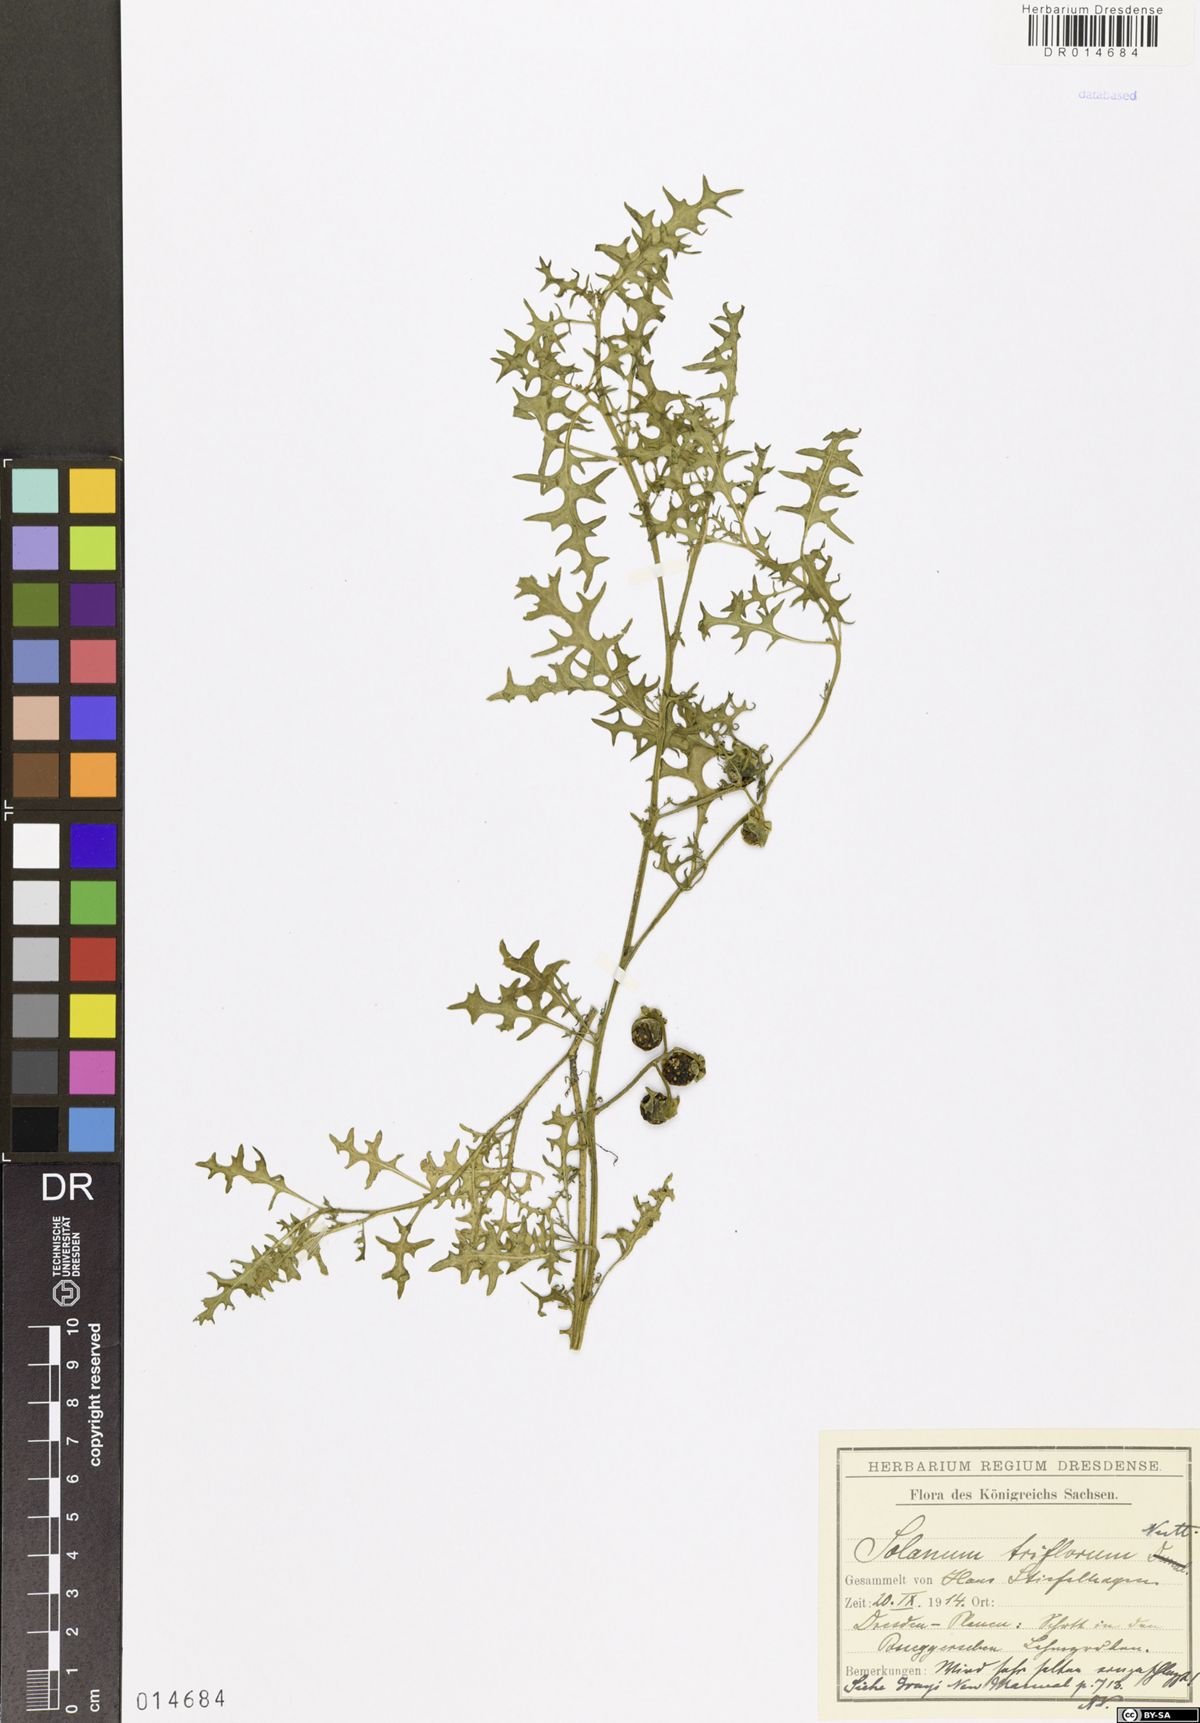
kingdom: Plantae
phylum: Tracheophyta
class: Magnoliopsida
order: Solanales
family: Solanaceae
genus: Solanum
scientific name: Solanum triflorum
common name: Small nightshade
